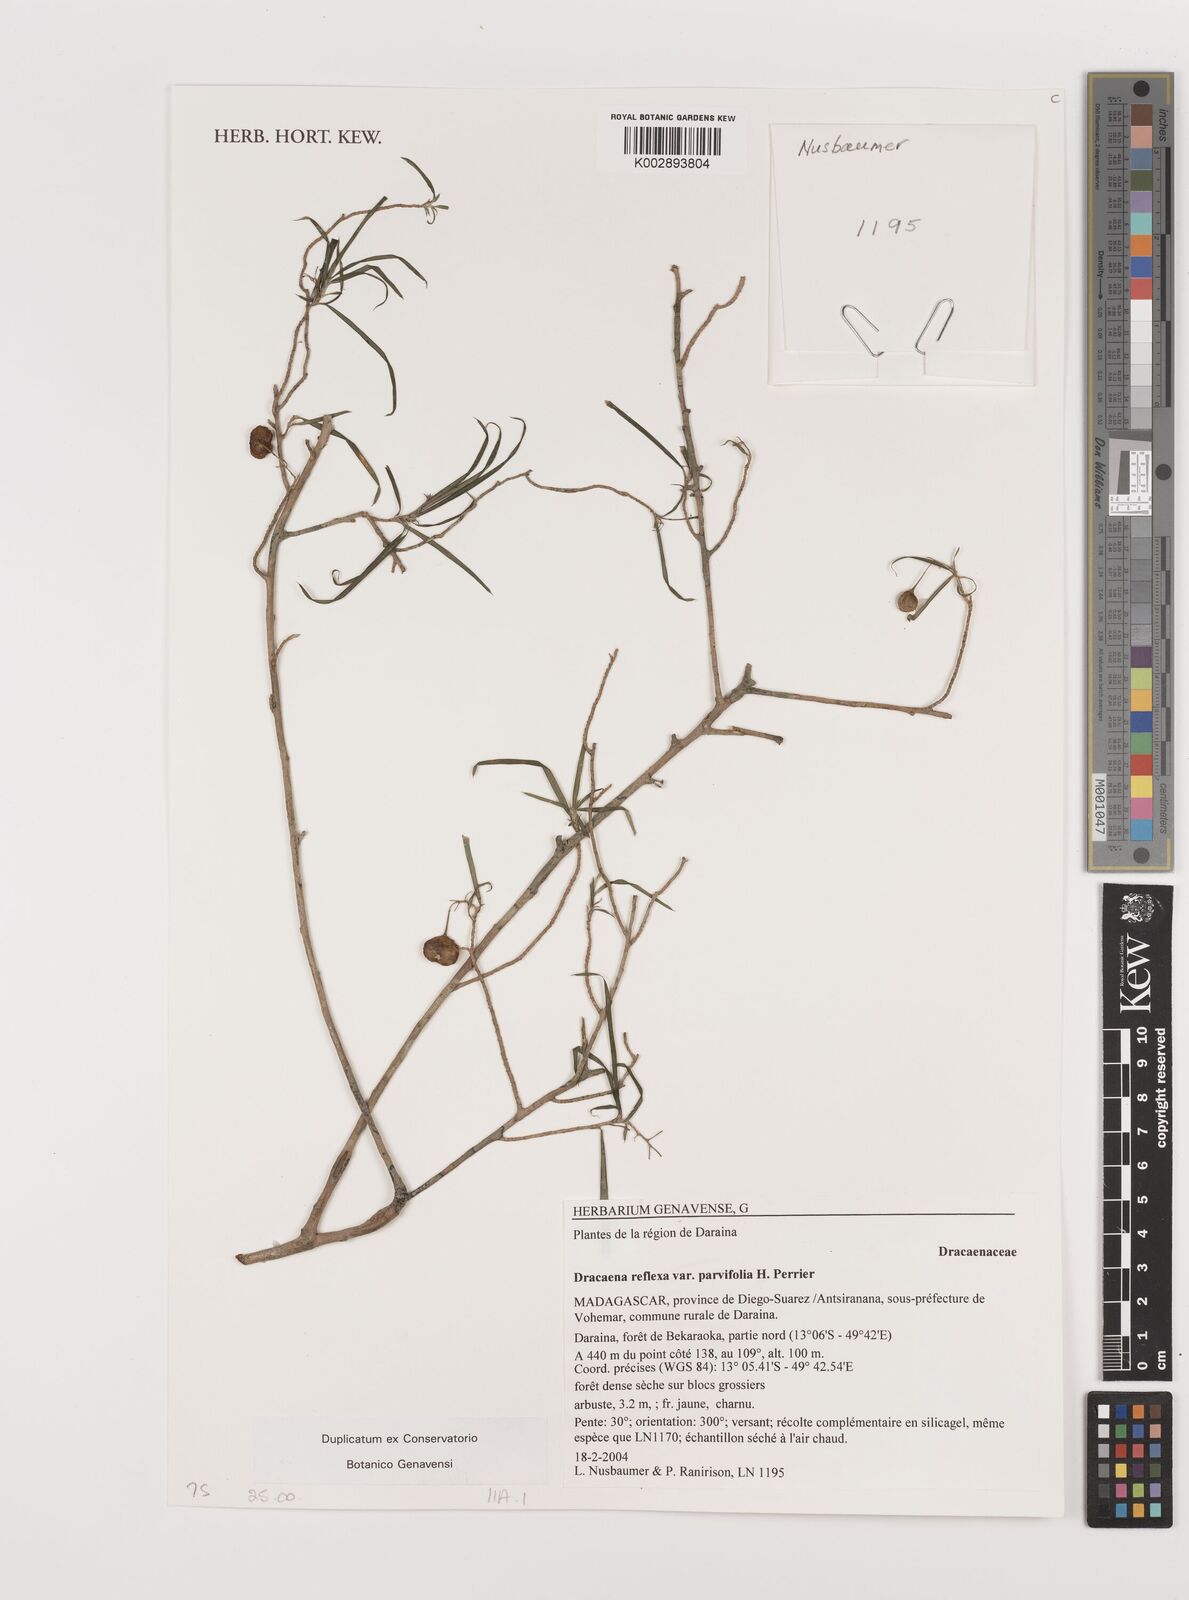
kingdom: Plantae
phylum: Tracheophyta
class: Liliopsida
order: Asparagales
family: Asparagaceae
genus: Dracaena
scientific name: Dracaena reflexa
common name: Song-of-india
